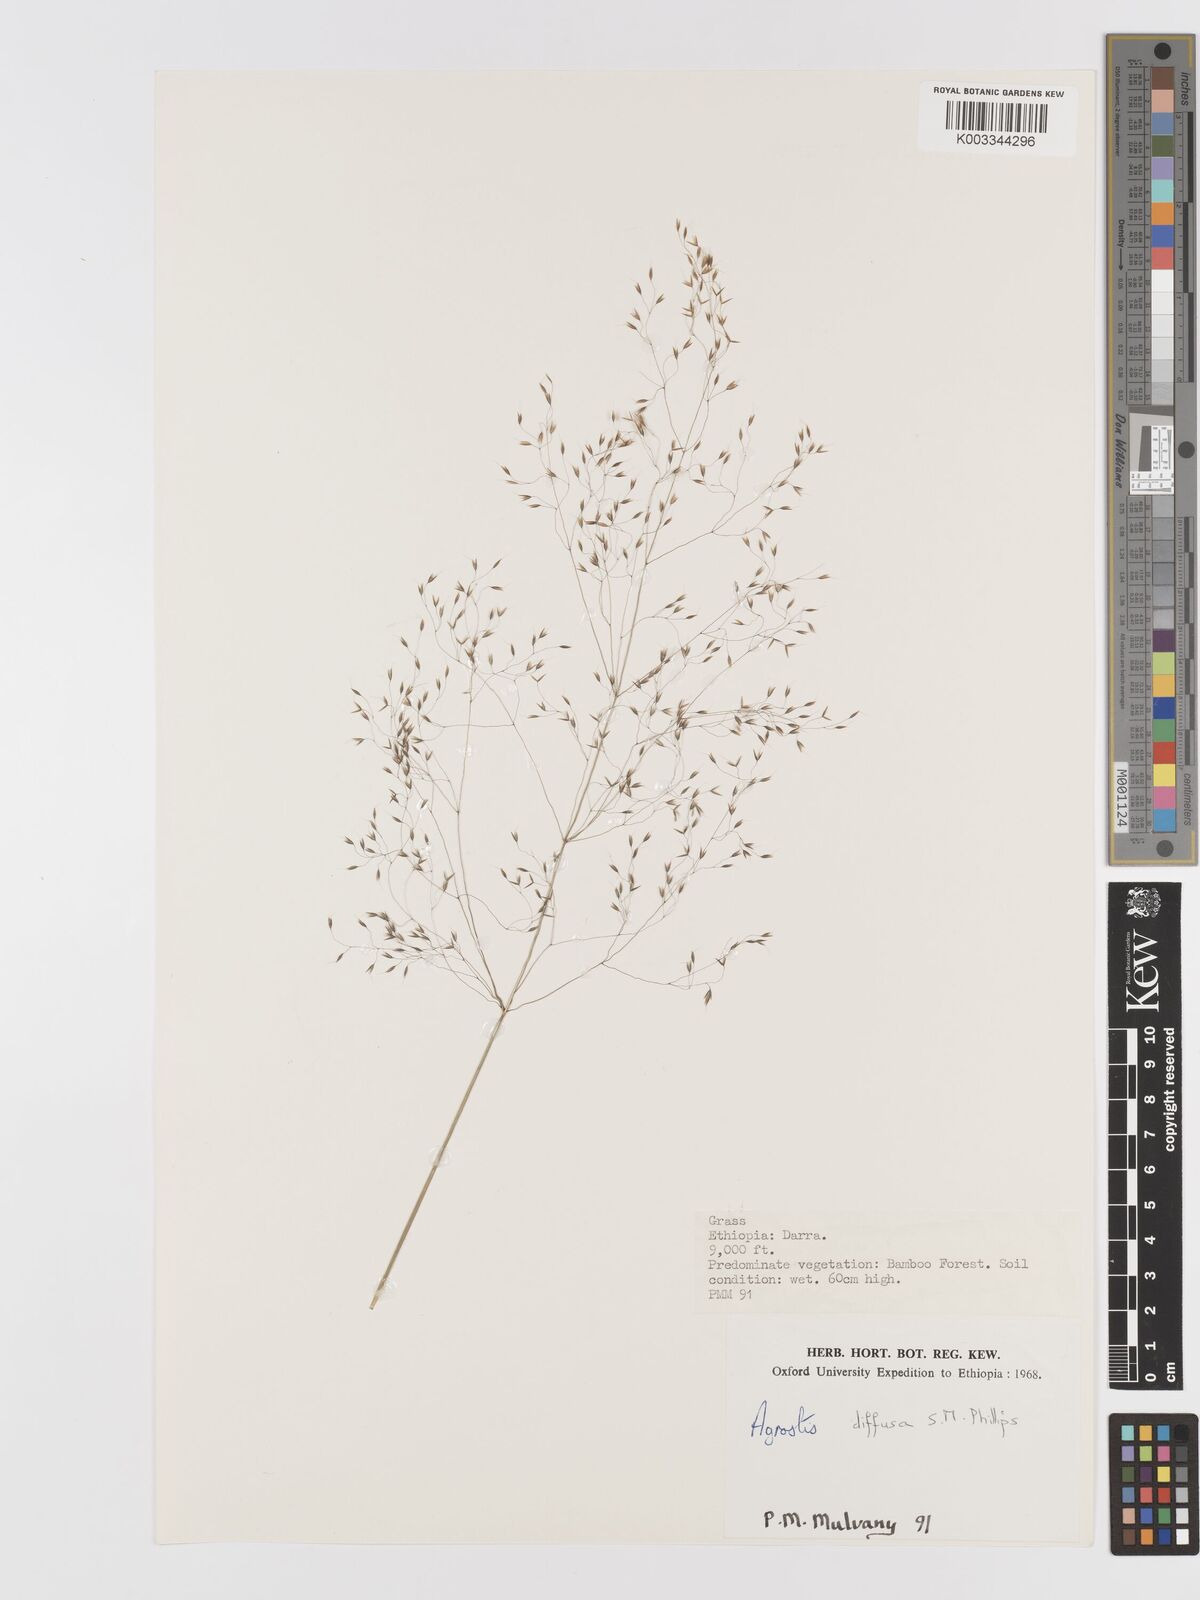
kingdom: Plantae
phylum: Tracheophyta
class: Liliopsida
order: Poales
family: Poaceae
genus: Agrostis
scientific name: Agrostis diffusa
